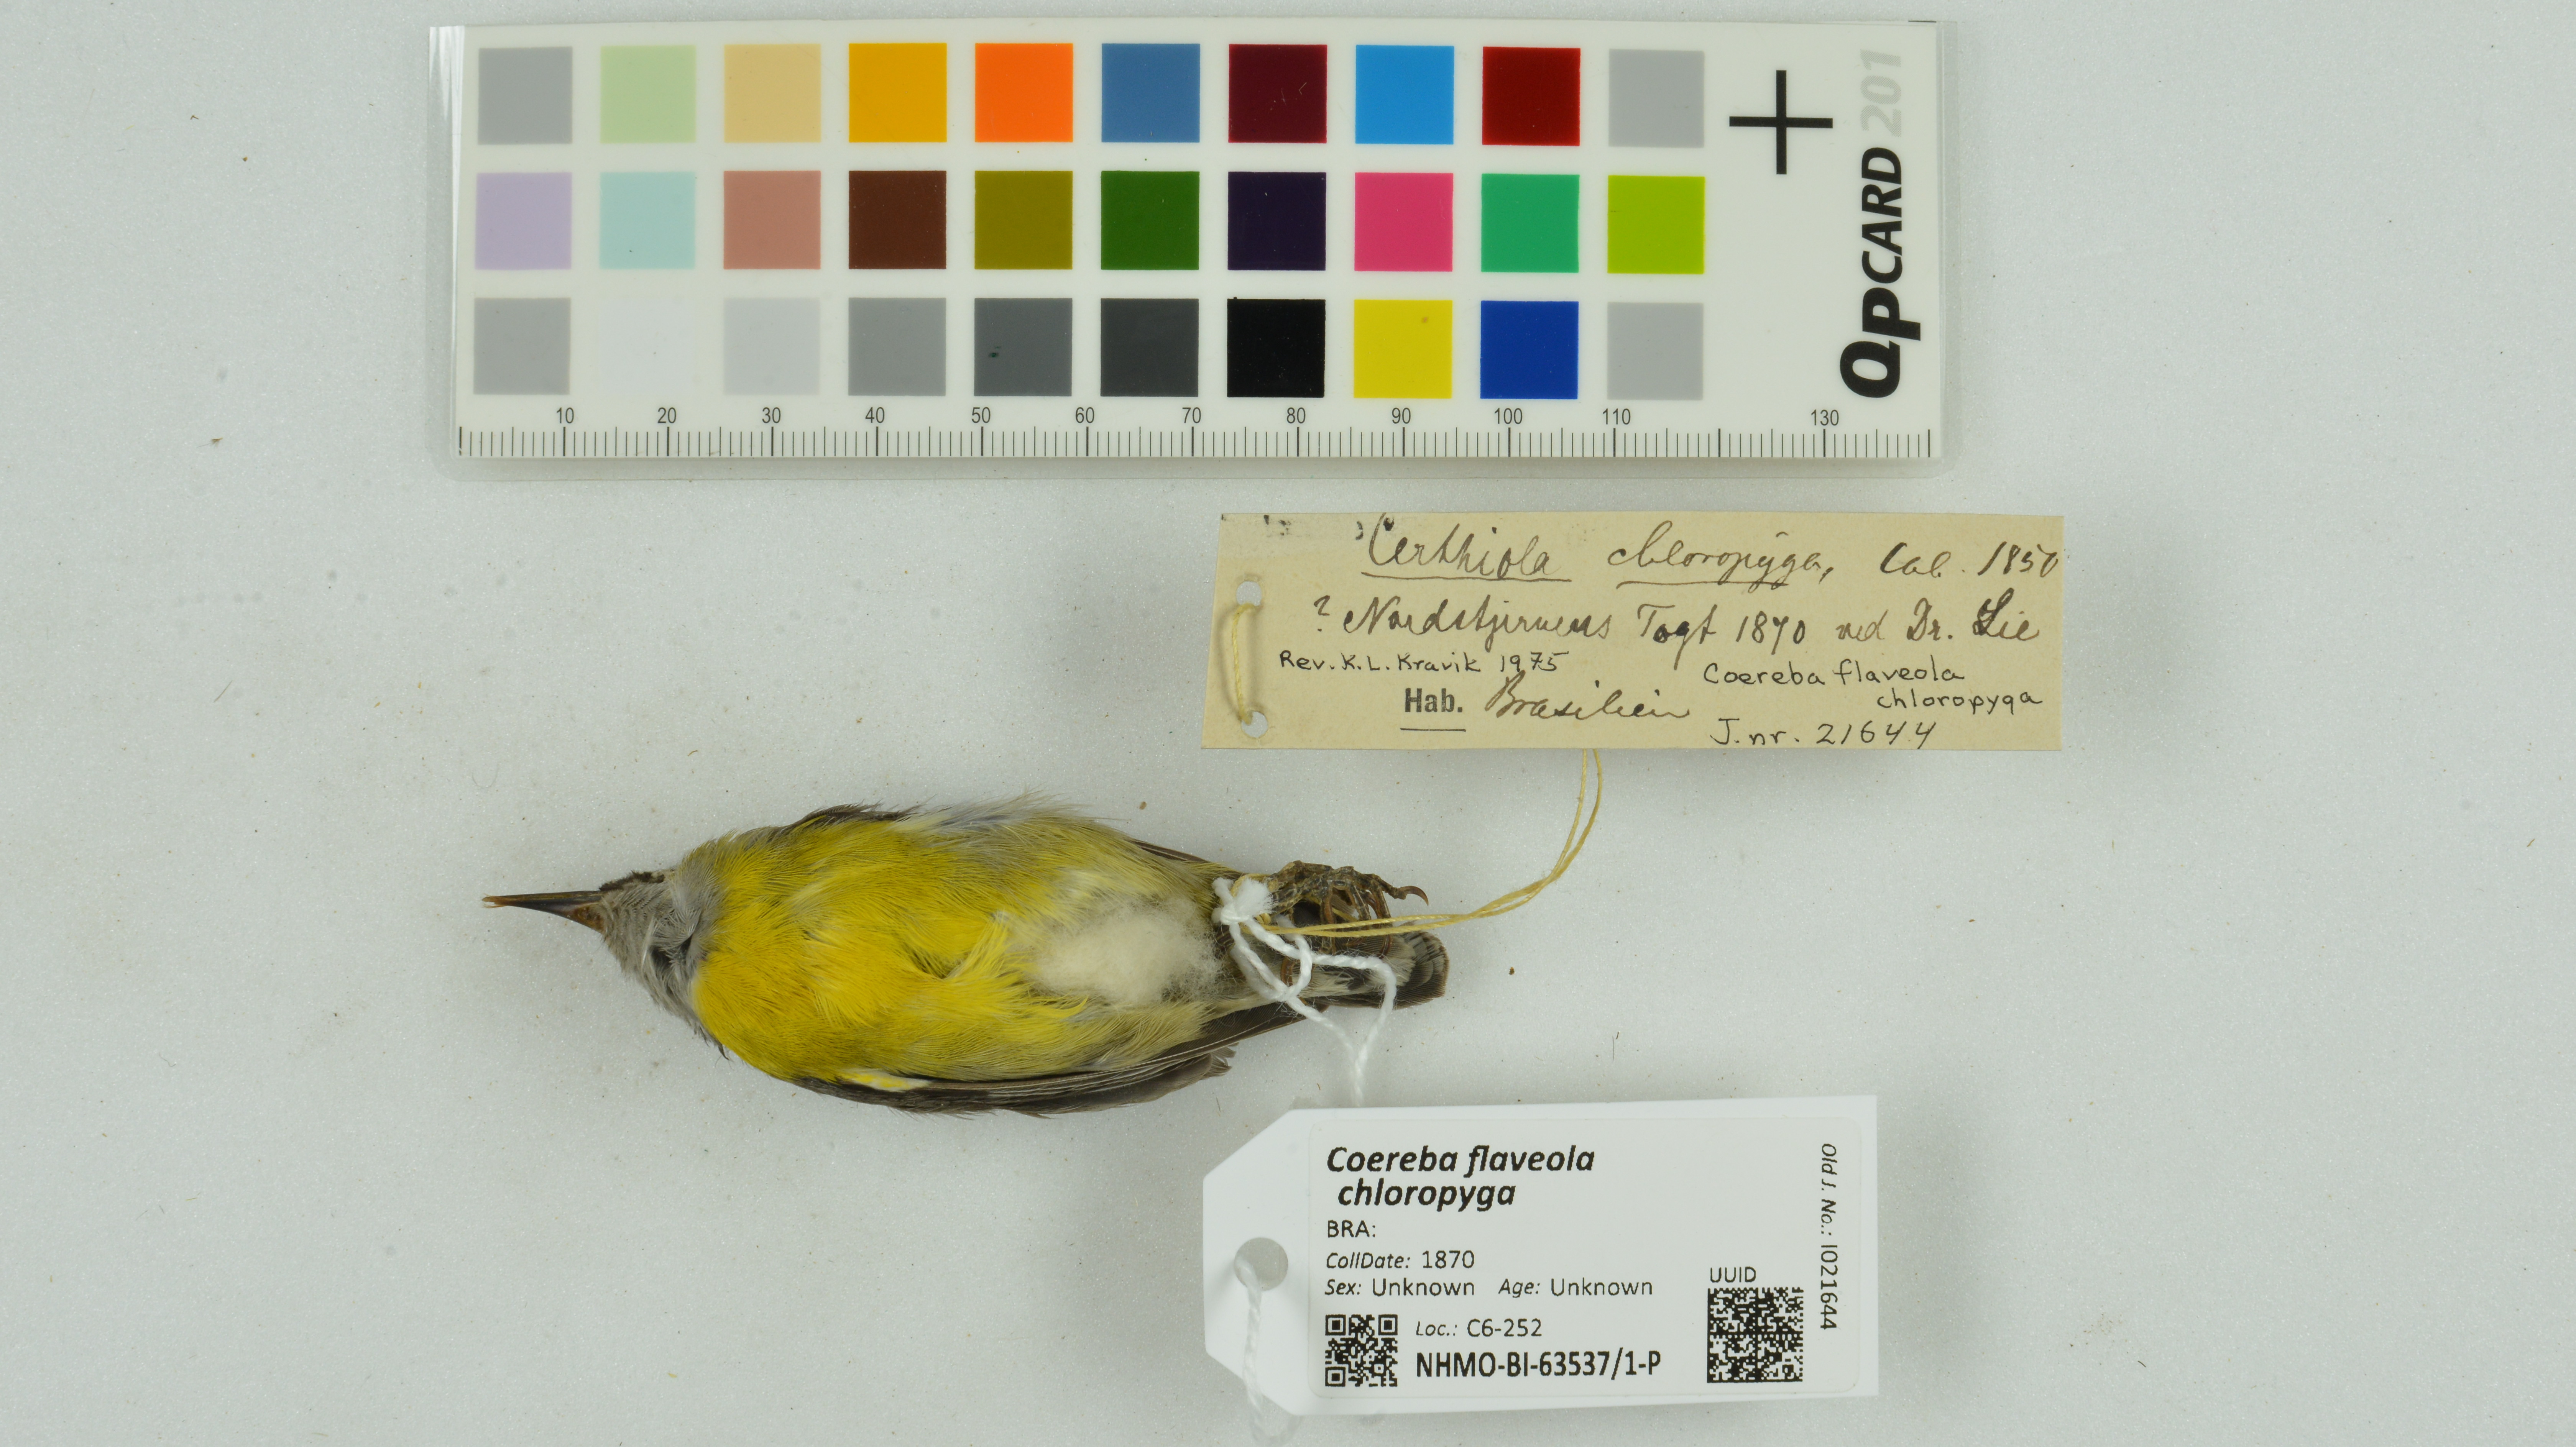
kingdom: Animalia
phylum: Chordata
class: Aves
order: Passeriformes
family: Thraupidae
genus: Coereba
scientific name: Coereba flaveola
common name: Bananaquit
